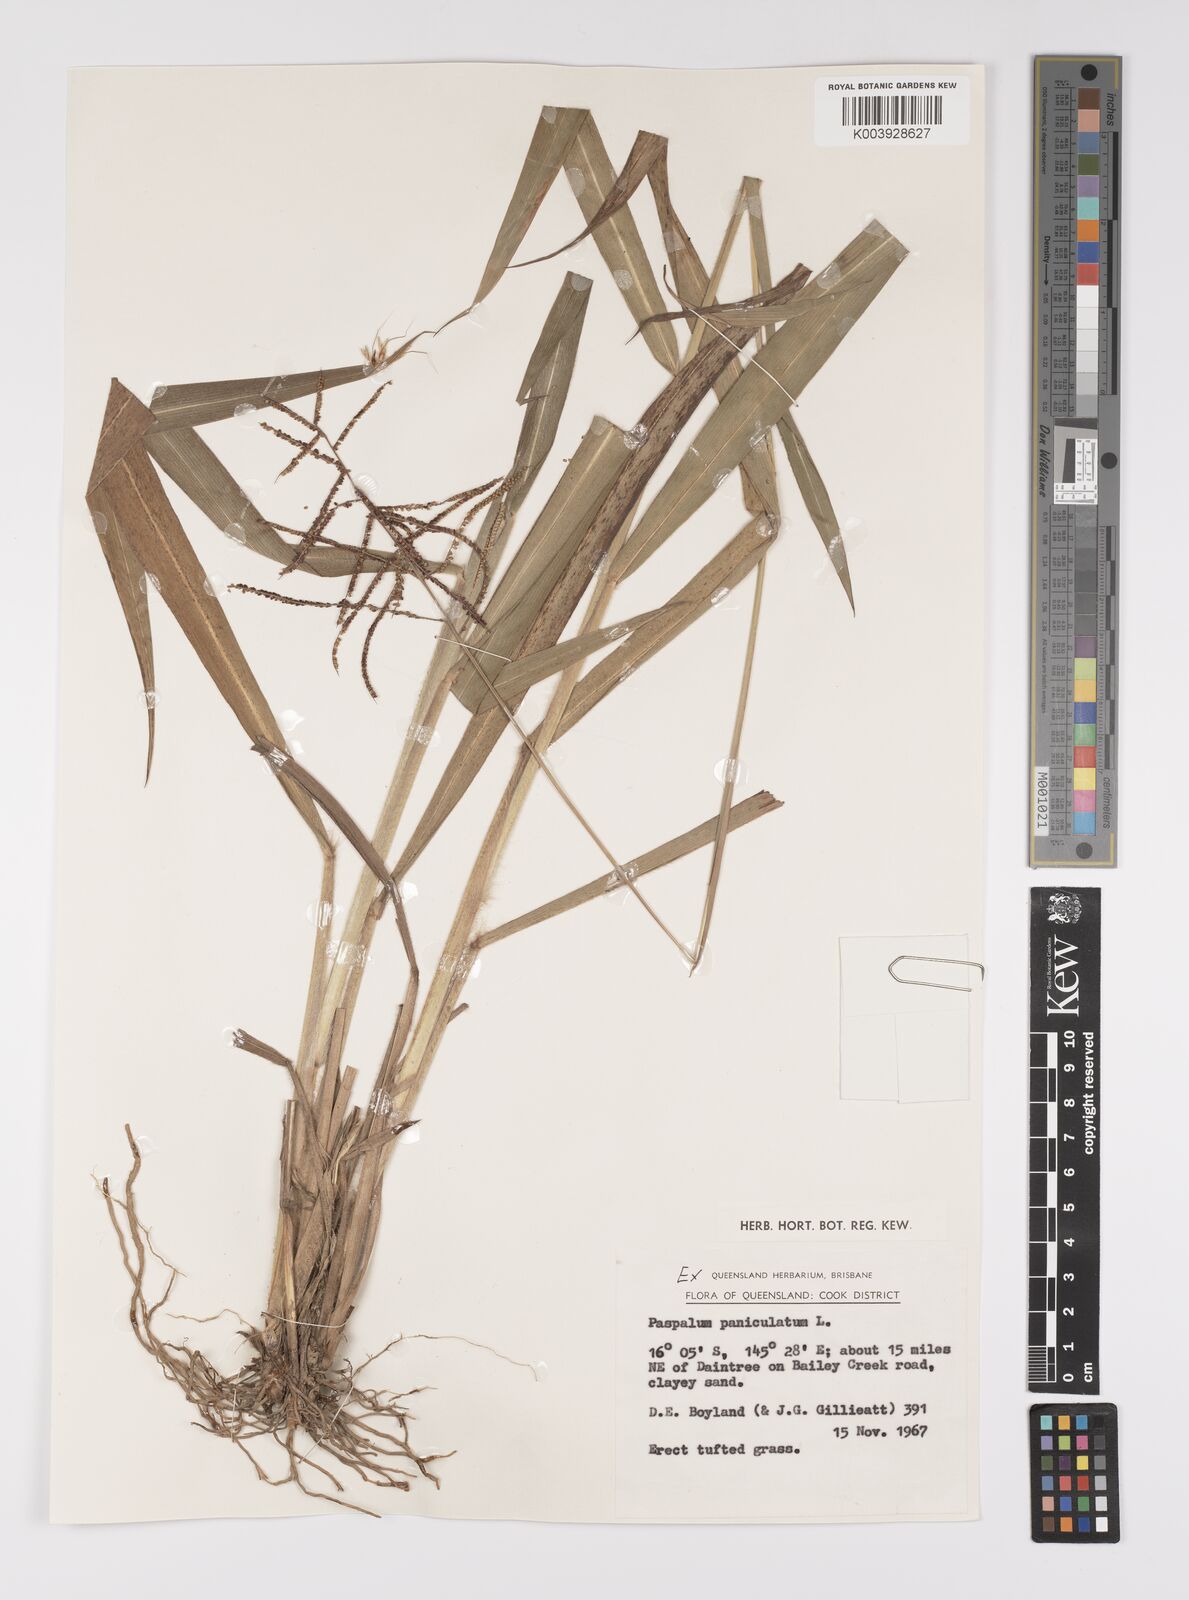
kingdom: Plantae
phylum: Tracheophyta
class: Liliopsida
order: Poales
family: Poaceae
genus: Paspalum
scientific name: Paspalum paniculatum
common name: Arrocillo
